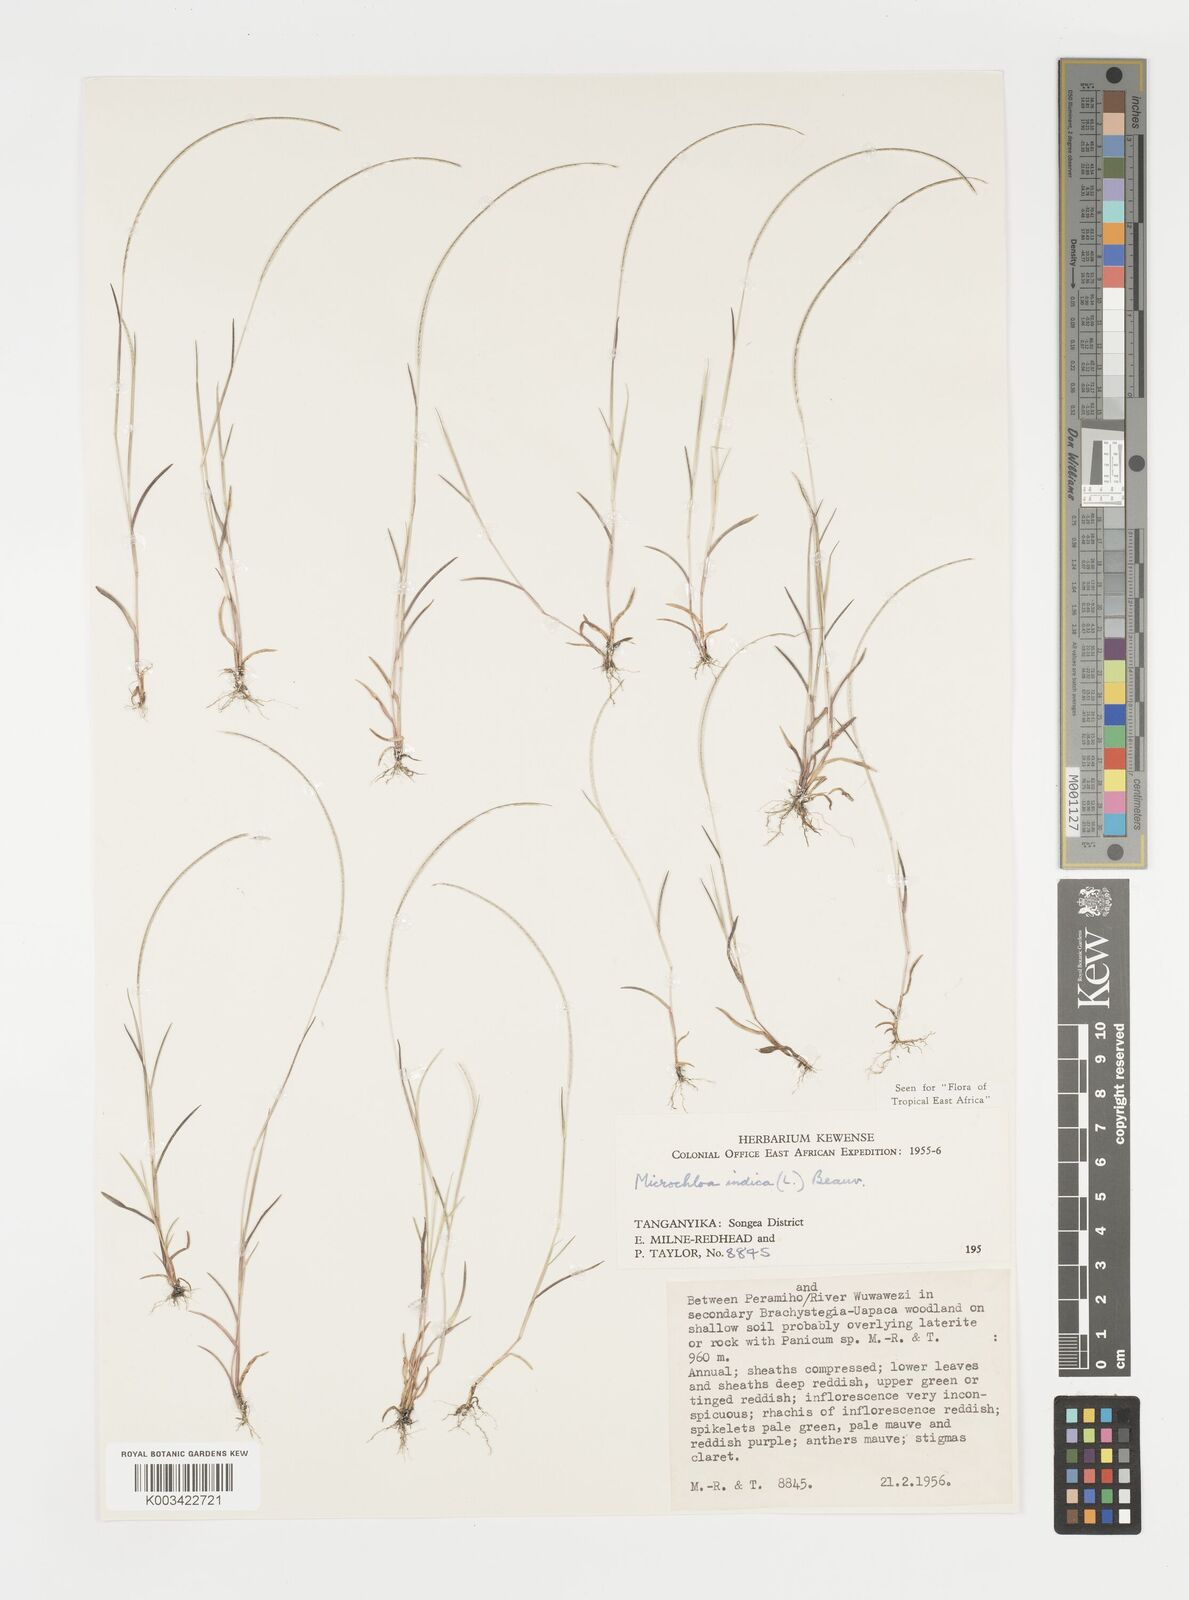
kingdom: Plantae
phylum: Tracheophyta
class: Liliopsida
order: Poales
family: Poaceae
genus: Microchloa
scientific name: Microchloa indica
